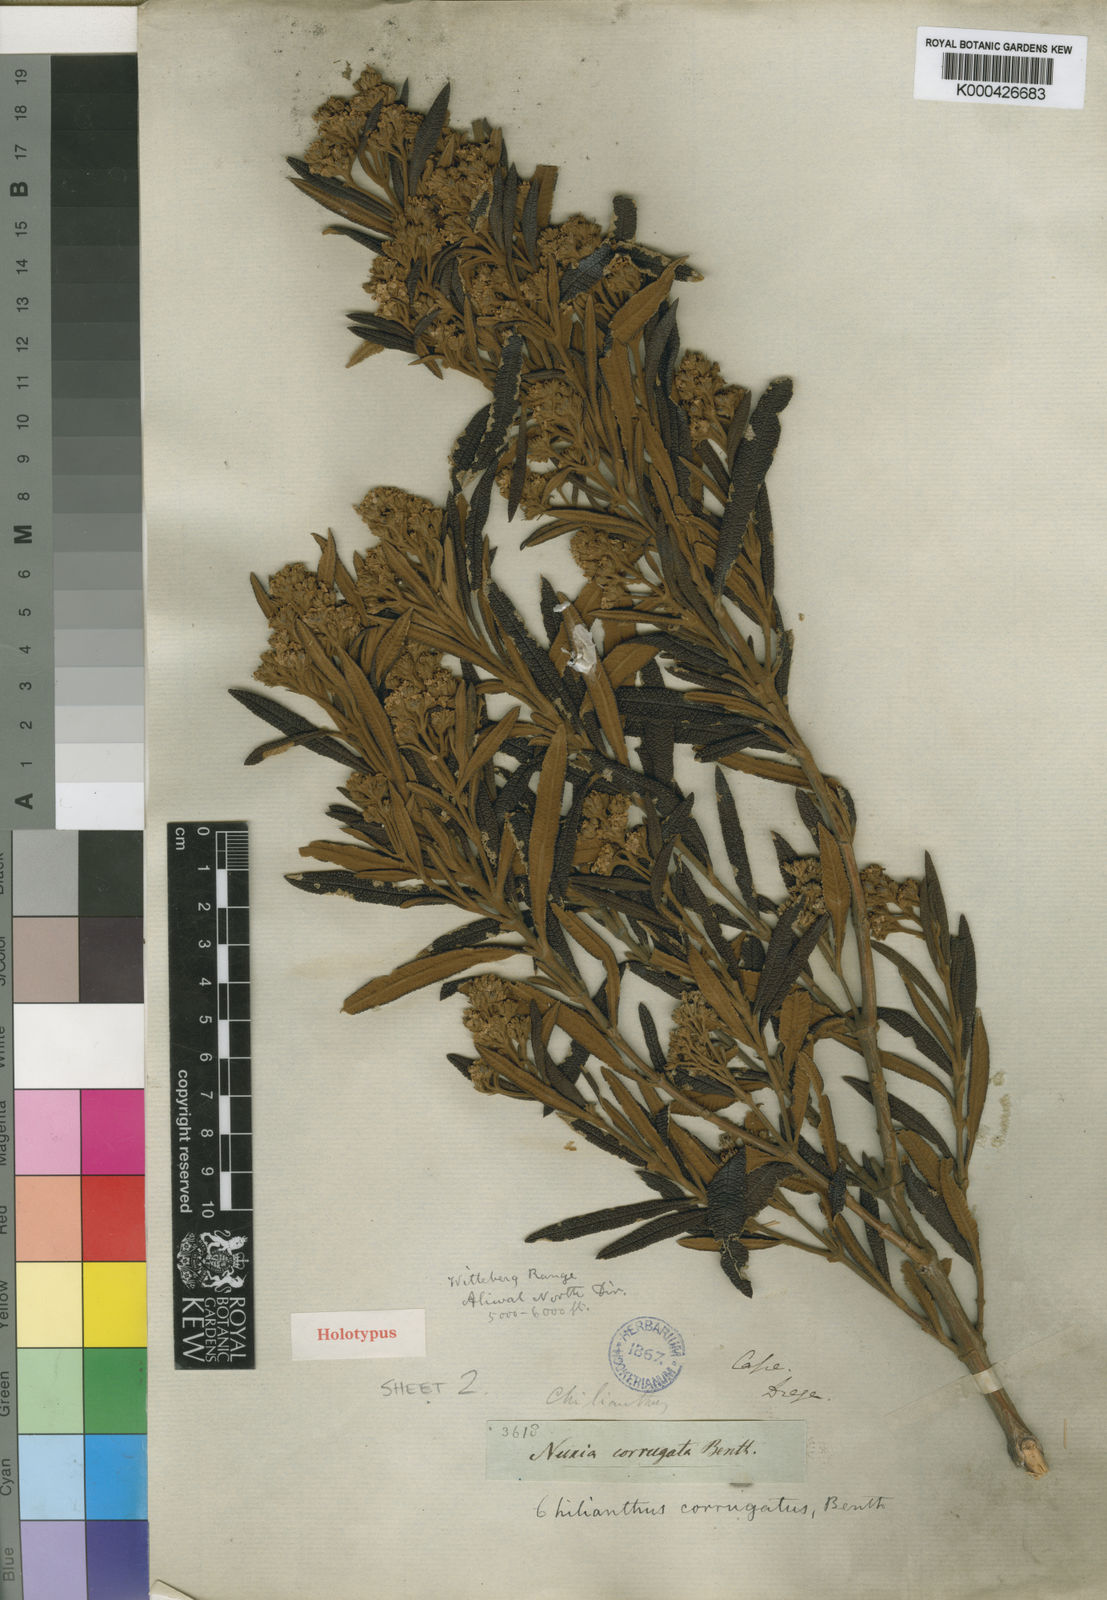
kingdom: Plantae
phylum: Tracheophyta
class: Magnoliopsida
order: Lamiales
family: Scrophulariaceae
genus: Buddleja
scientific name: Buddleja loricata
